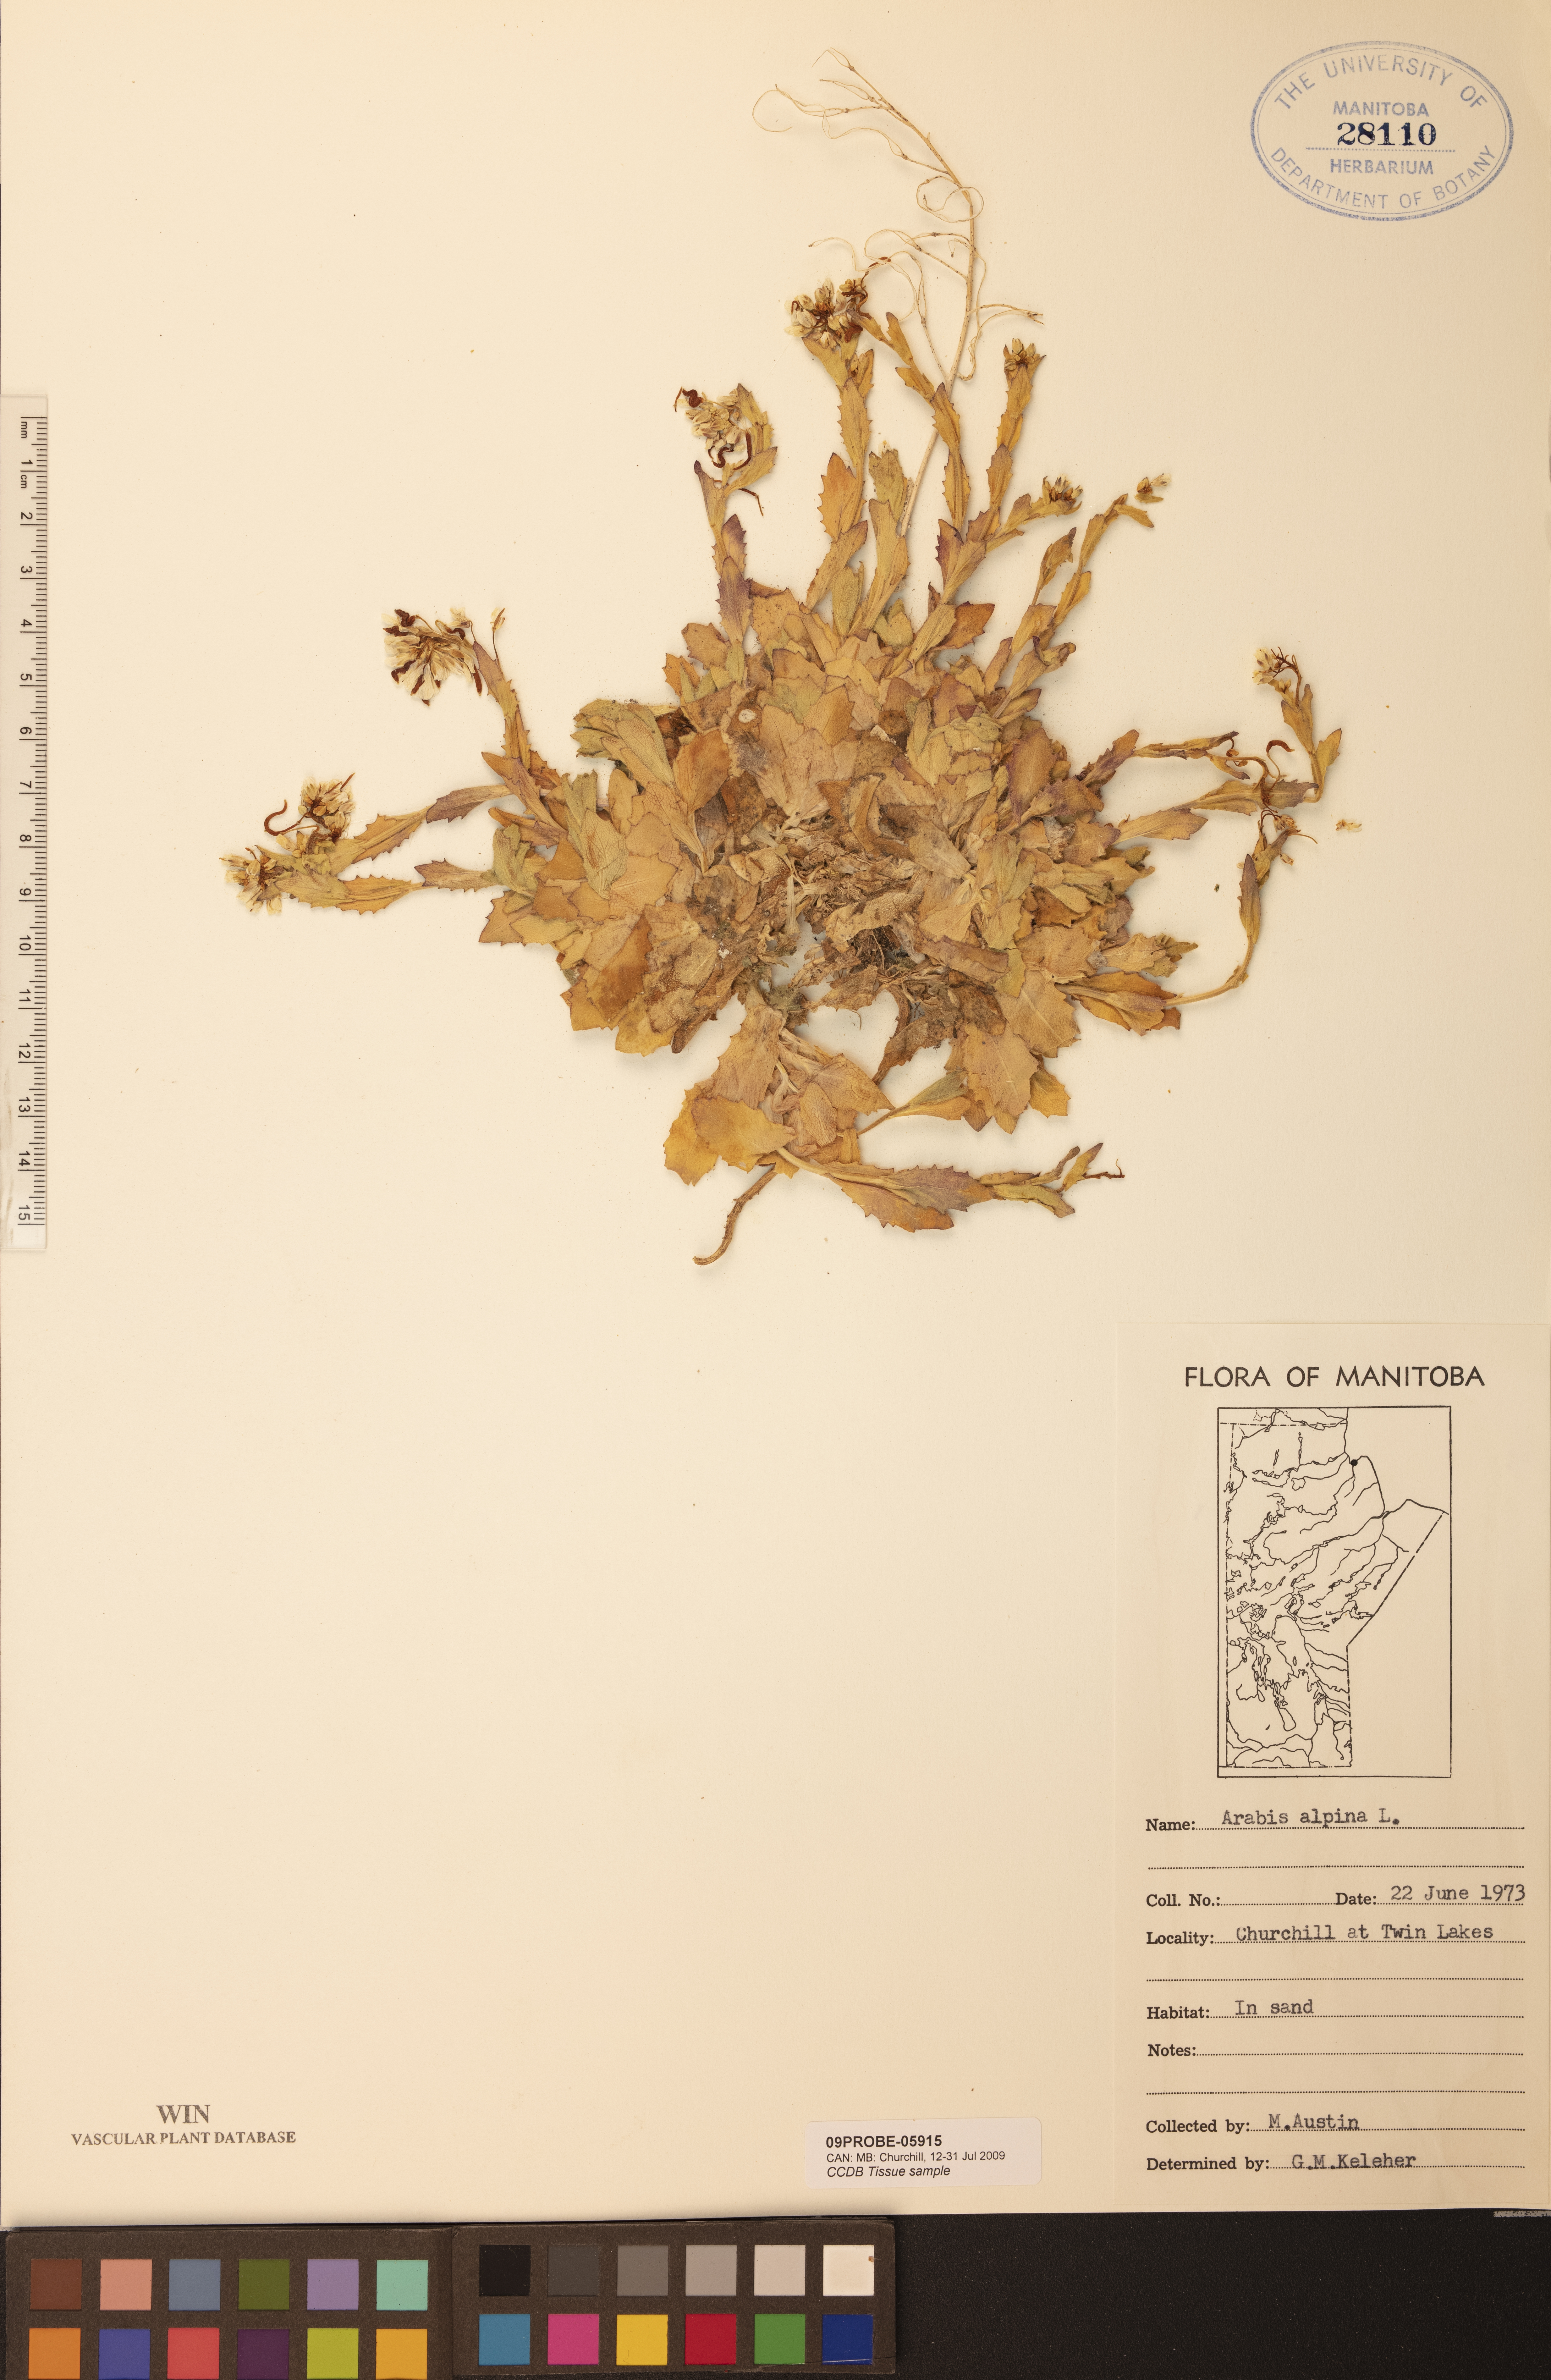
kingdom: Plantae
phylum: Tracheophyta
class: Magnoliopsida
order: Brassicales
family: Brassicaceae
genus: Arabis
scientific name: Arabis alpina
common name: Alpine rock-cress
